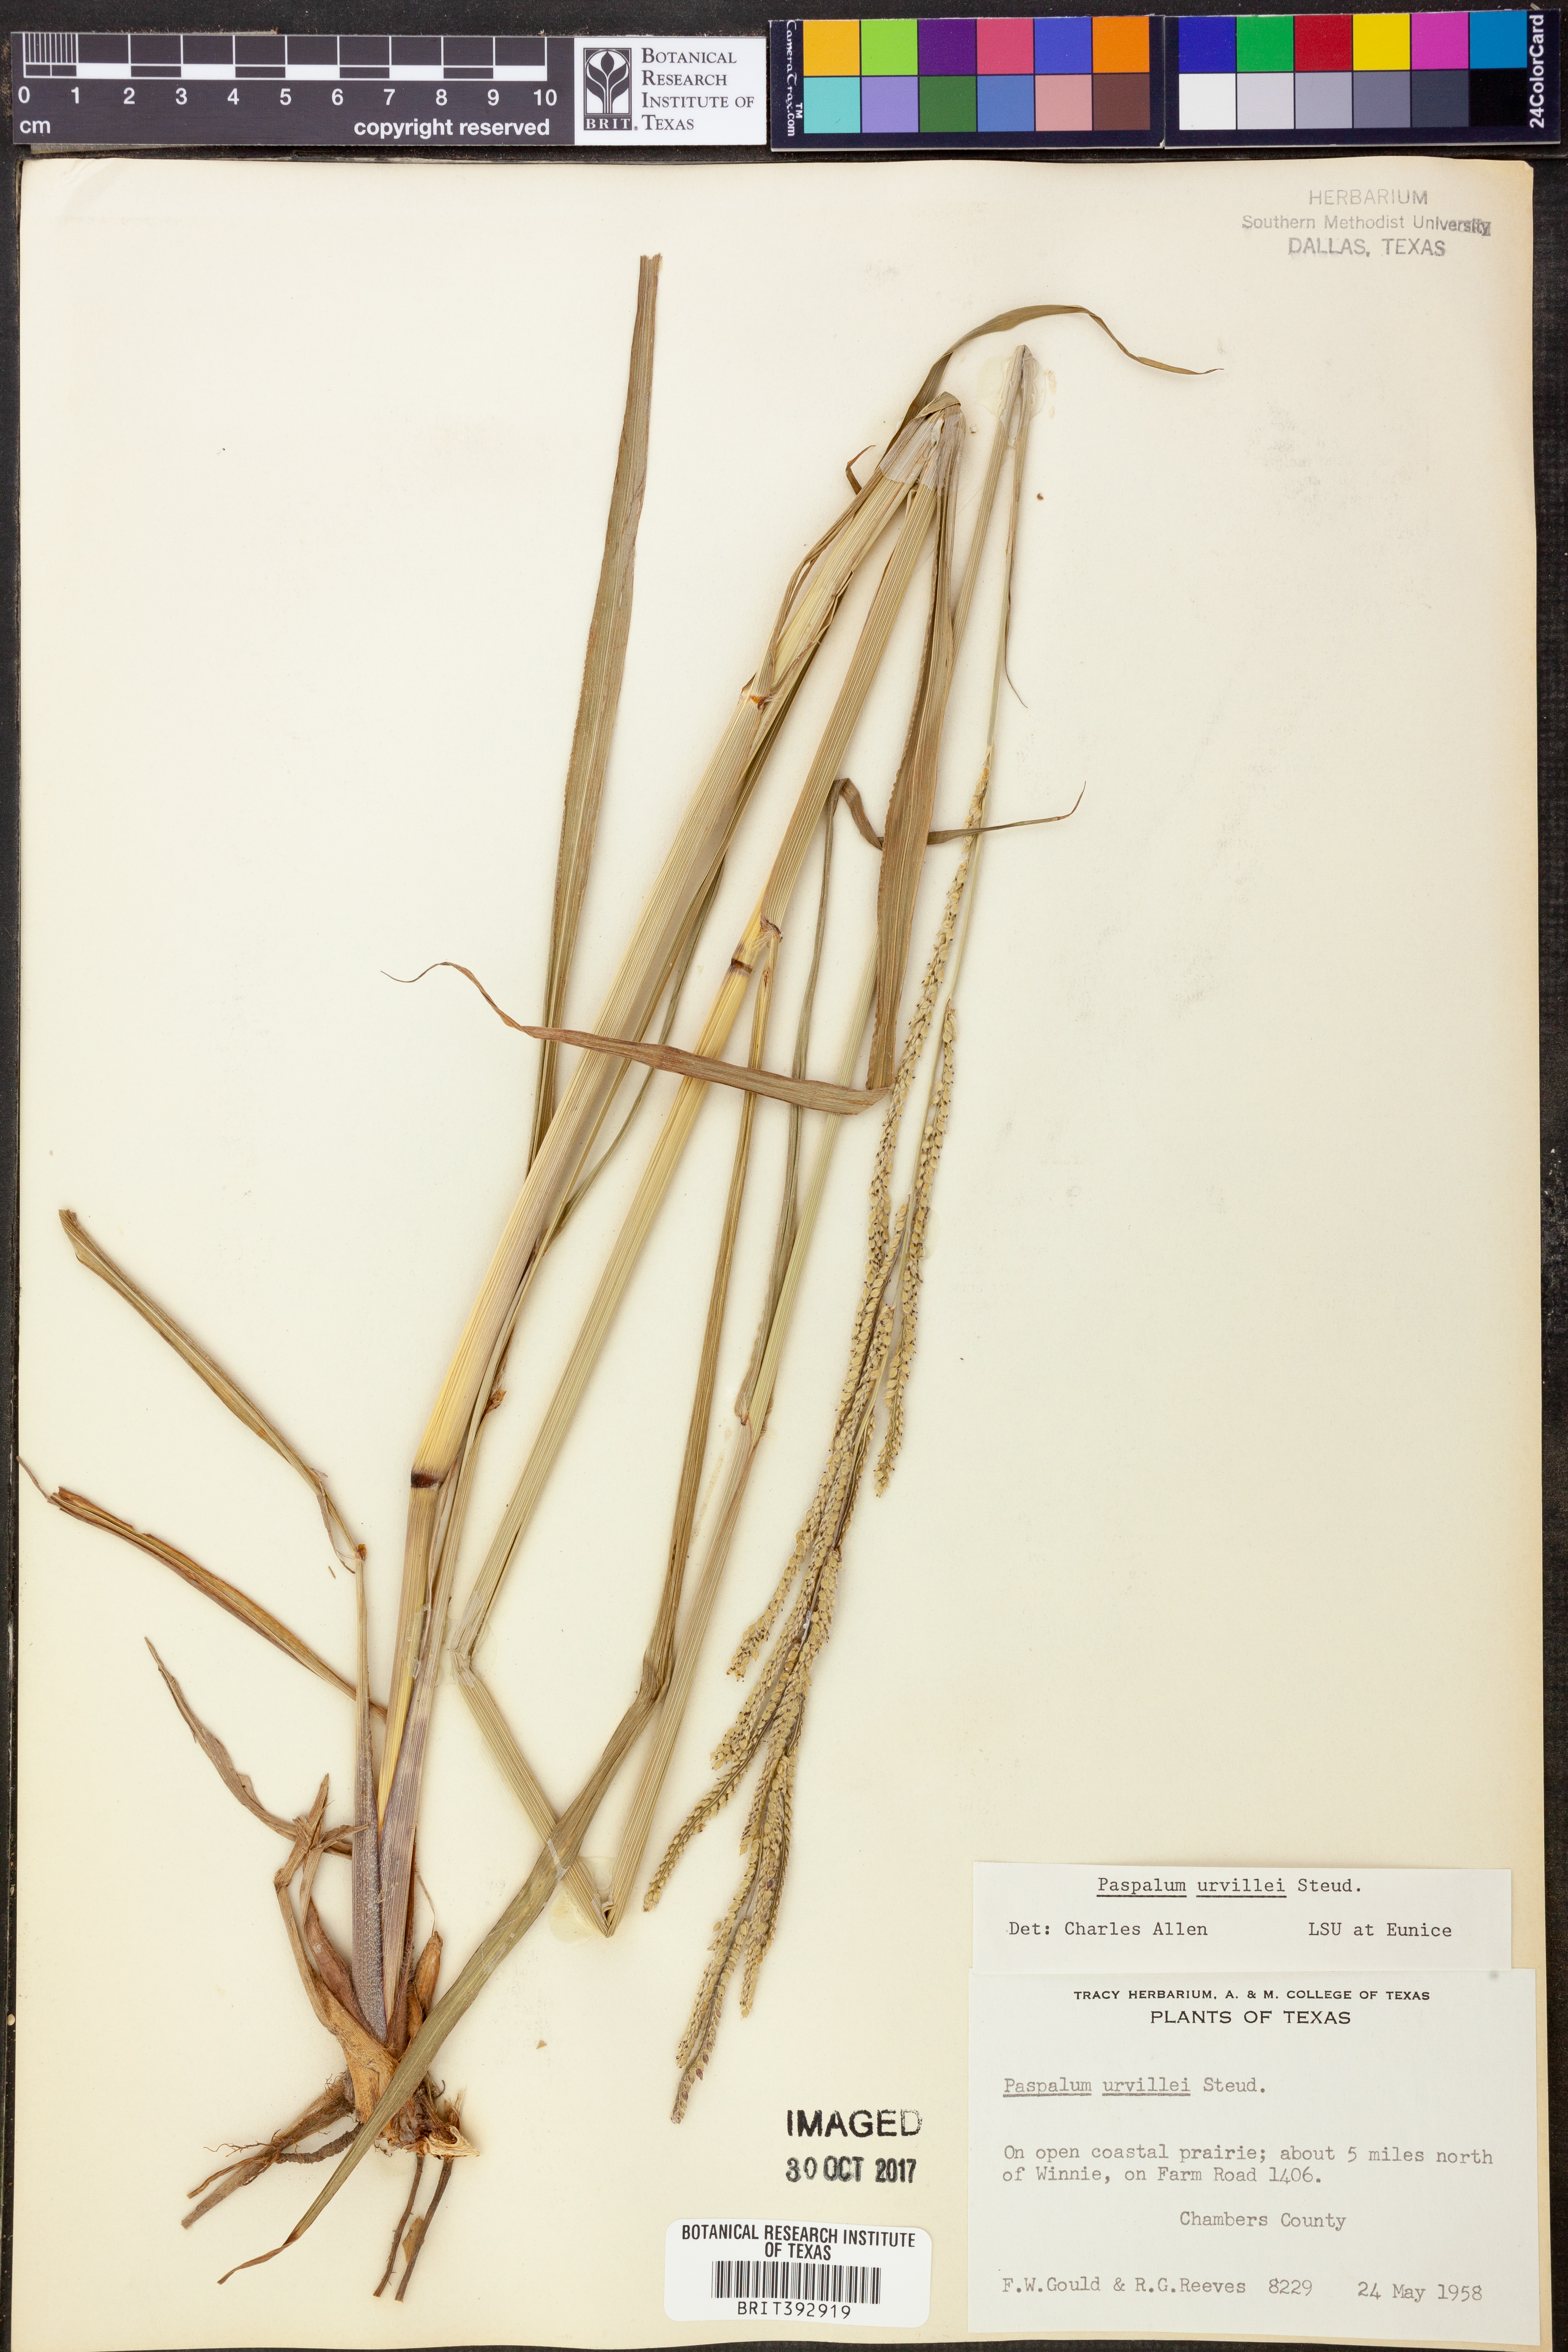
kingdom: Plantae
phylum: Tracheophyta
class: Liliopsida
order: Poales
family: Poaceae
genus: Paspalum
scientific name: Paspalum urvillei
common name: Vasey's grass
